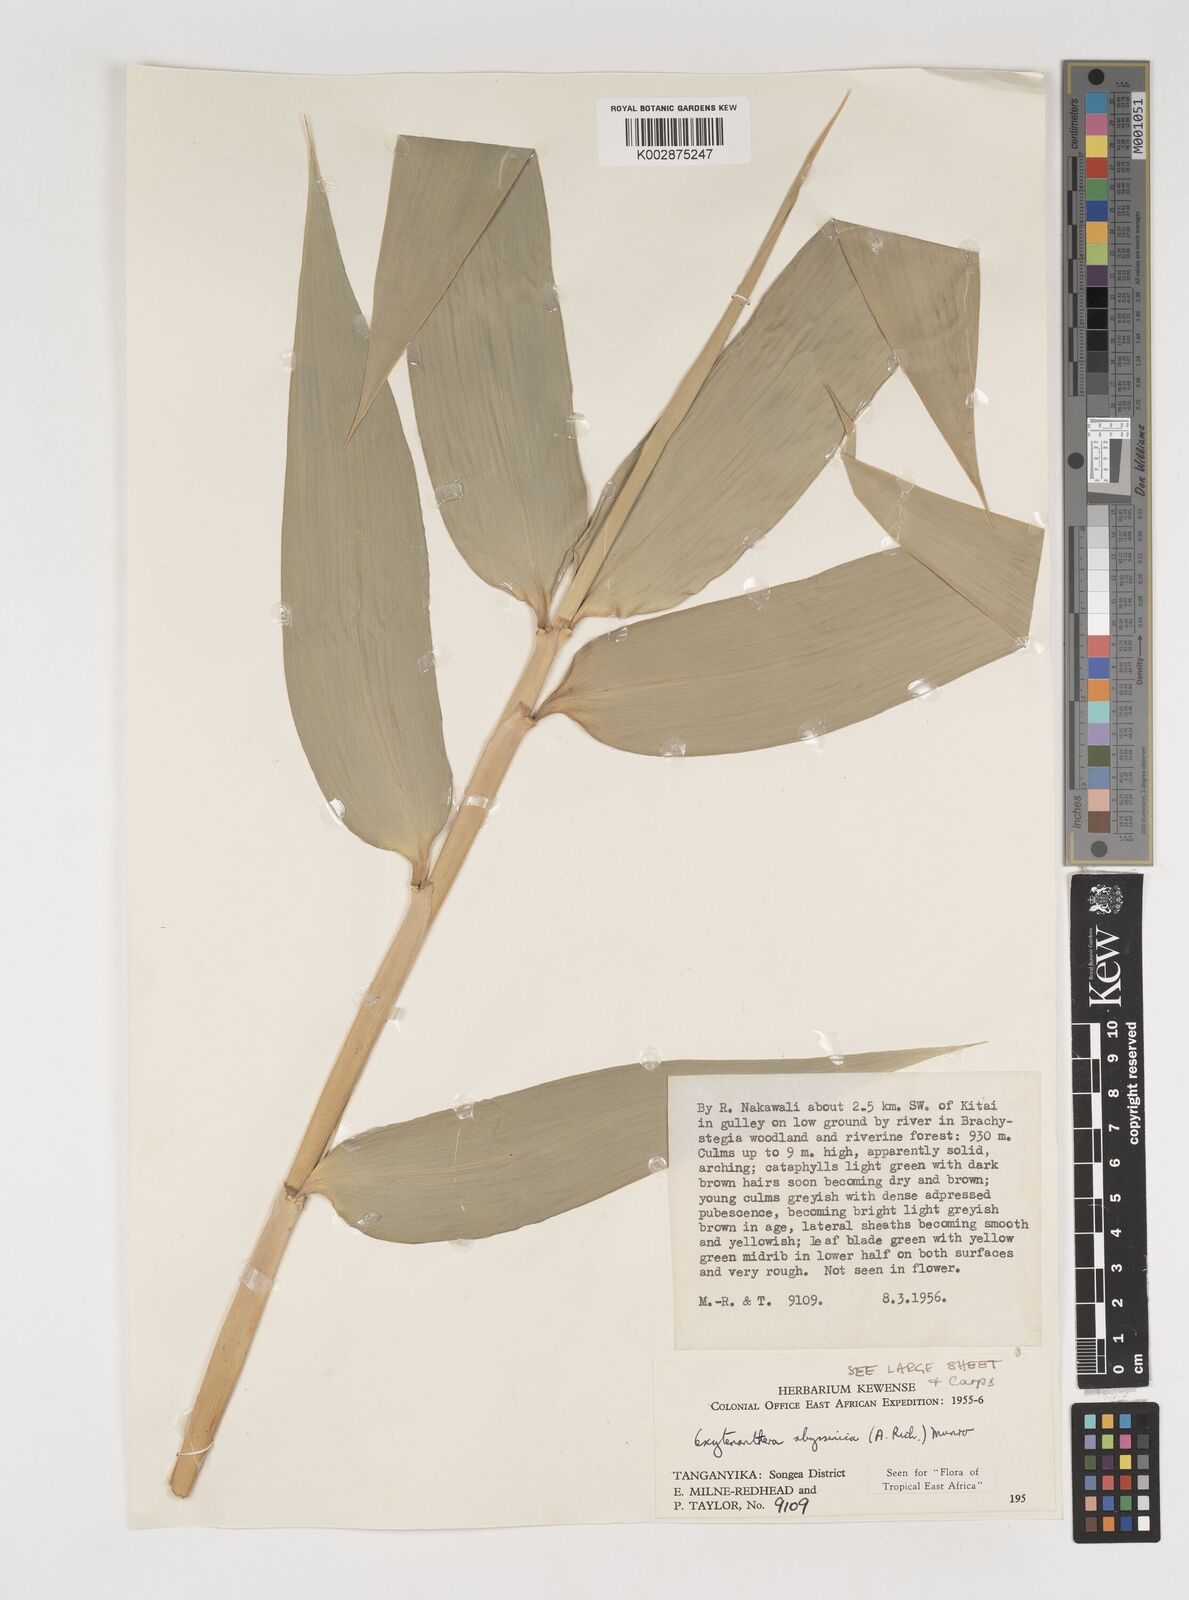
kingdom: Plantae
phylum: Tracheophyta
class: Liliopsida
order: Poales
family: Poaceae
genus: Oxytenanthera
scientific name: Oxytenanthera abyssinica
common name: Wine bamboo
